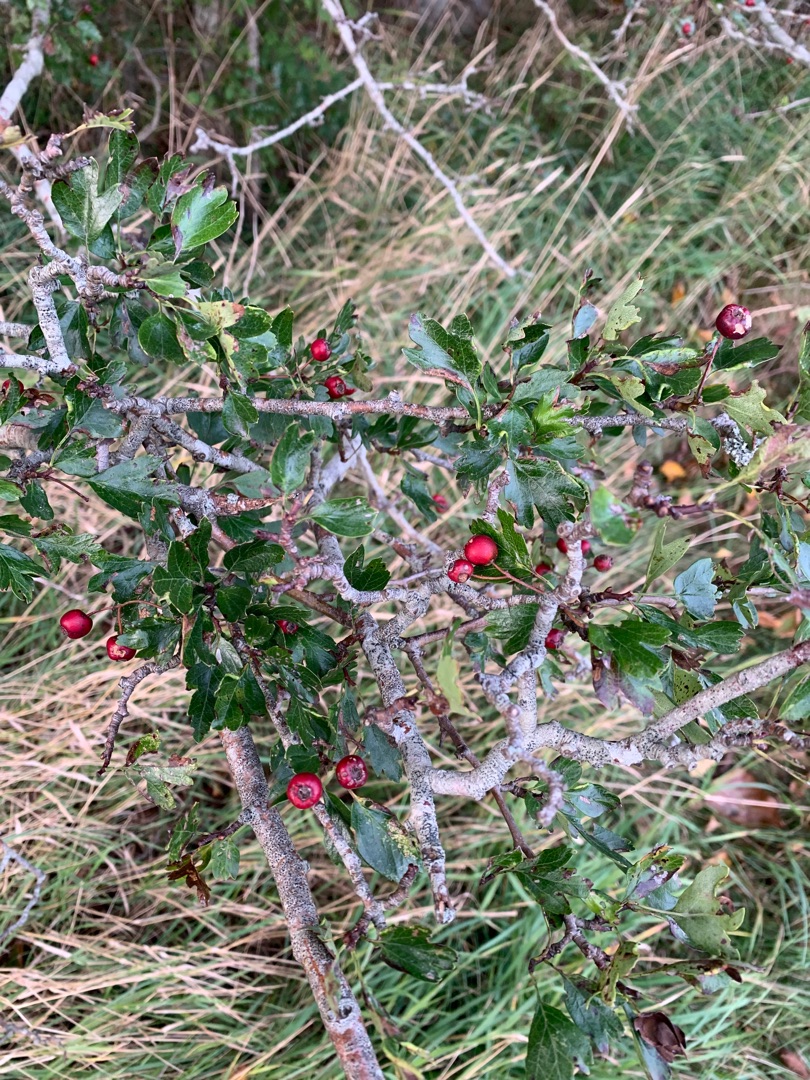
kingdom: Plantae
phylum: Tracheophyta
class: Magnoliopsida
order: Rosales
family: Rosaceae
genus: Crataegus
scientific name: Crataegus monogyna
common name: Engriflet hvidtjørn
